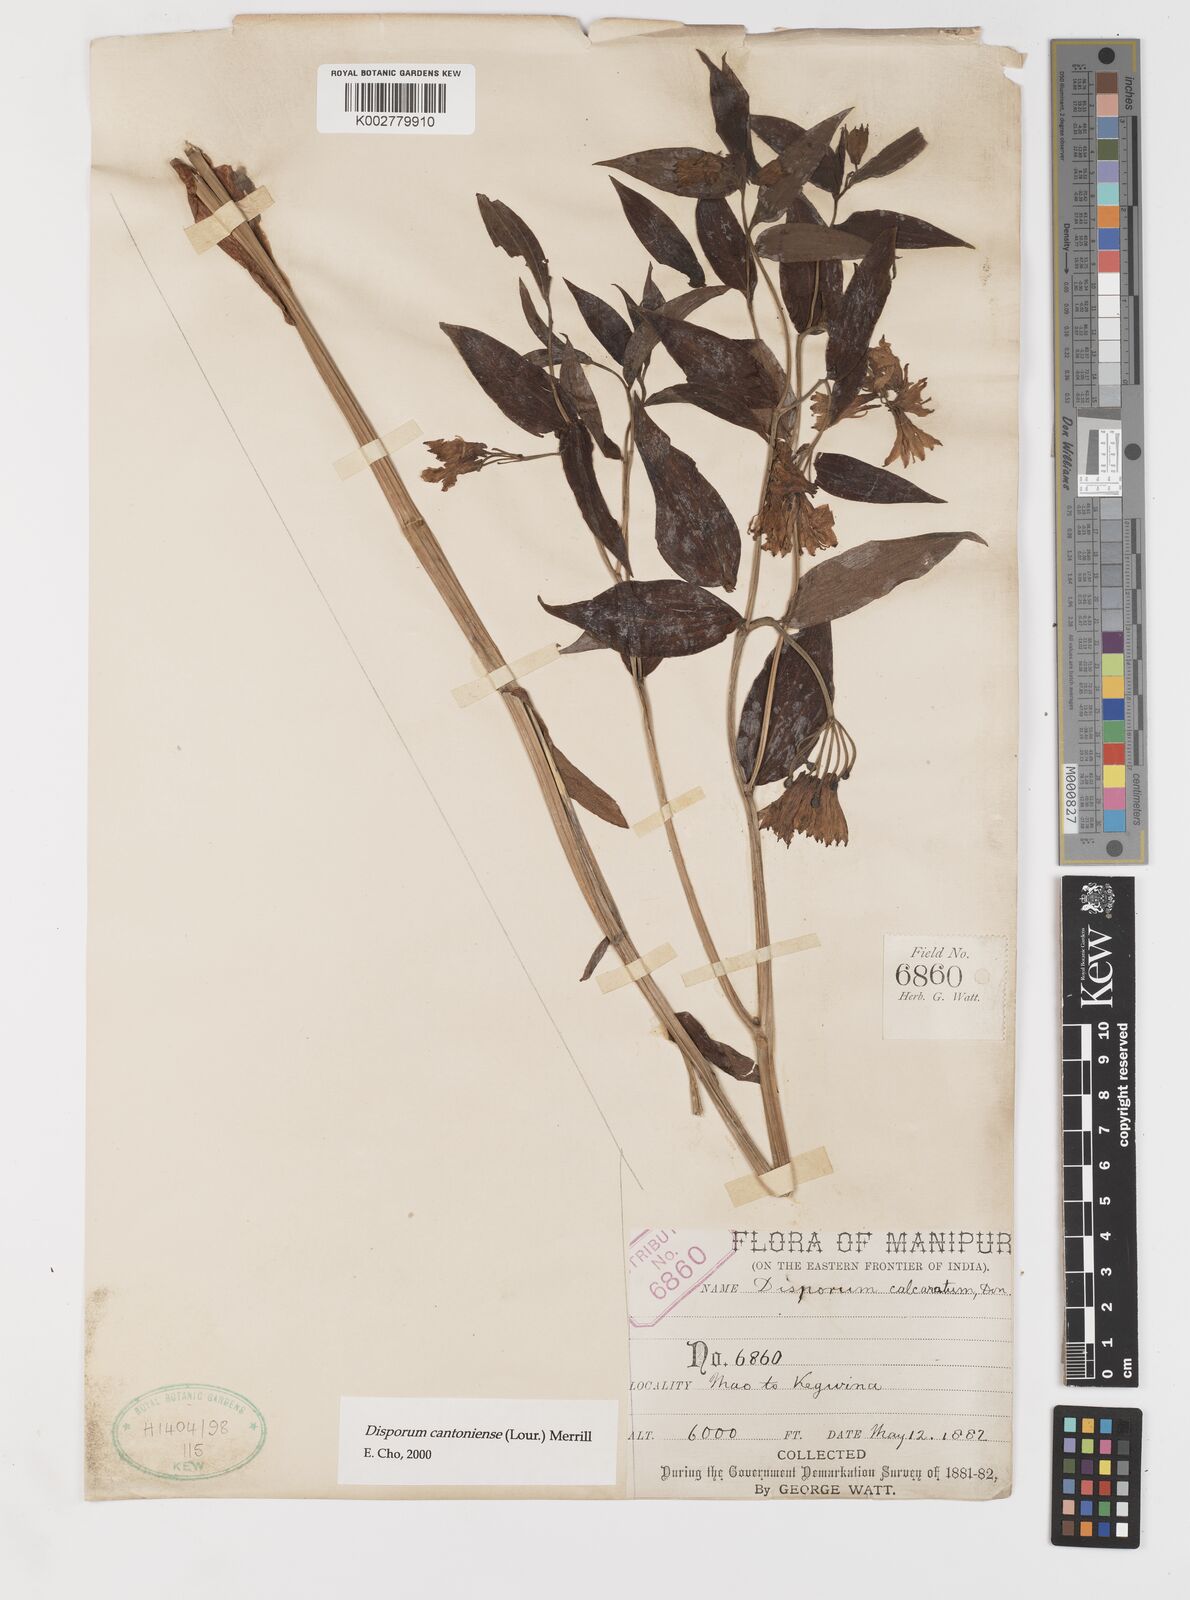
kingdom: Plantae
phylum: Tracheophyta
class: Liliopsida
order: Liliales
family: Colchicaceae
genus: Disporum
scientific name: Disporum cantoniense
